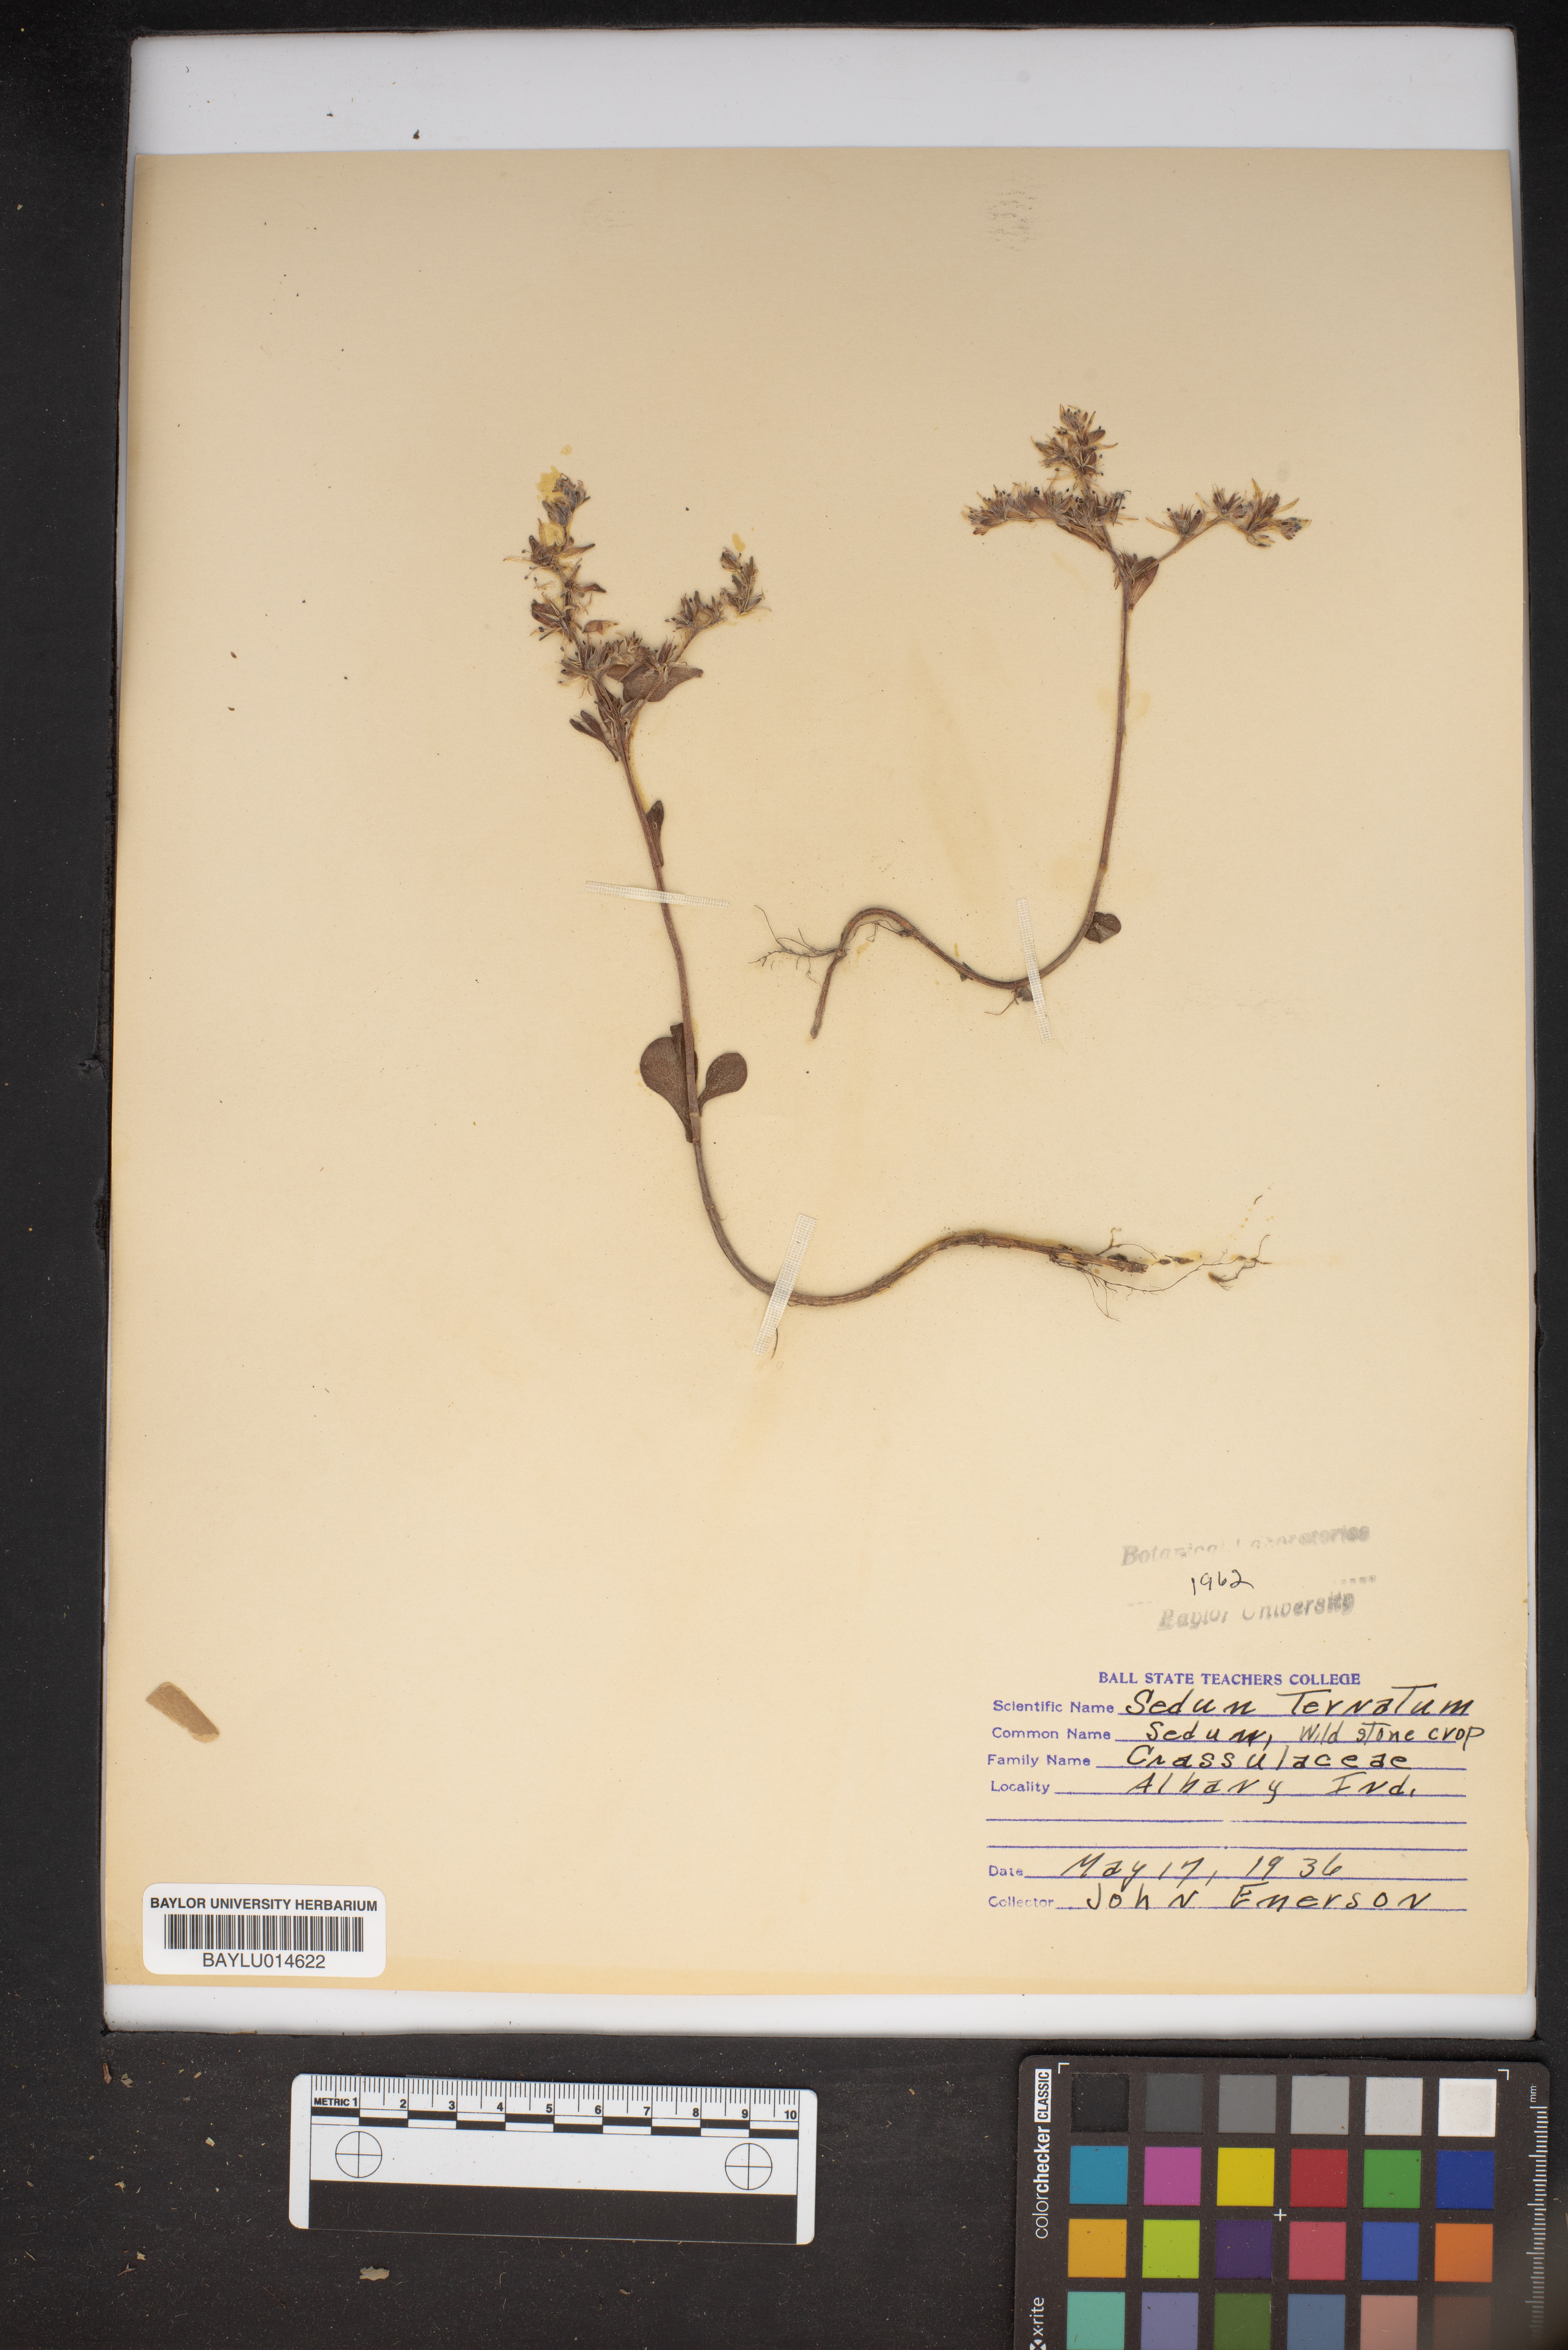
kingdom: Plantae
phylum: Tracheophyta
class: Magnoliopsida
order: Saxifragales
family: Crassulaceae
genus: Sedum
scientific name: Sedum ternatum
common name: Wild stonecrop
